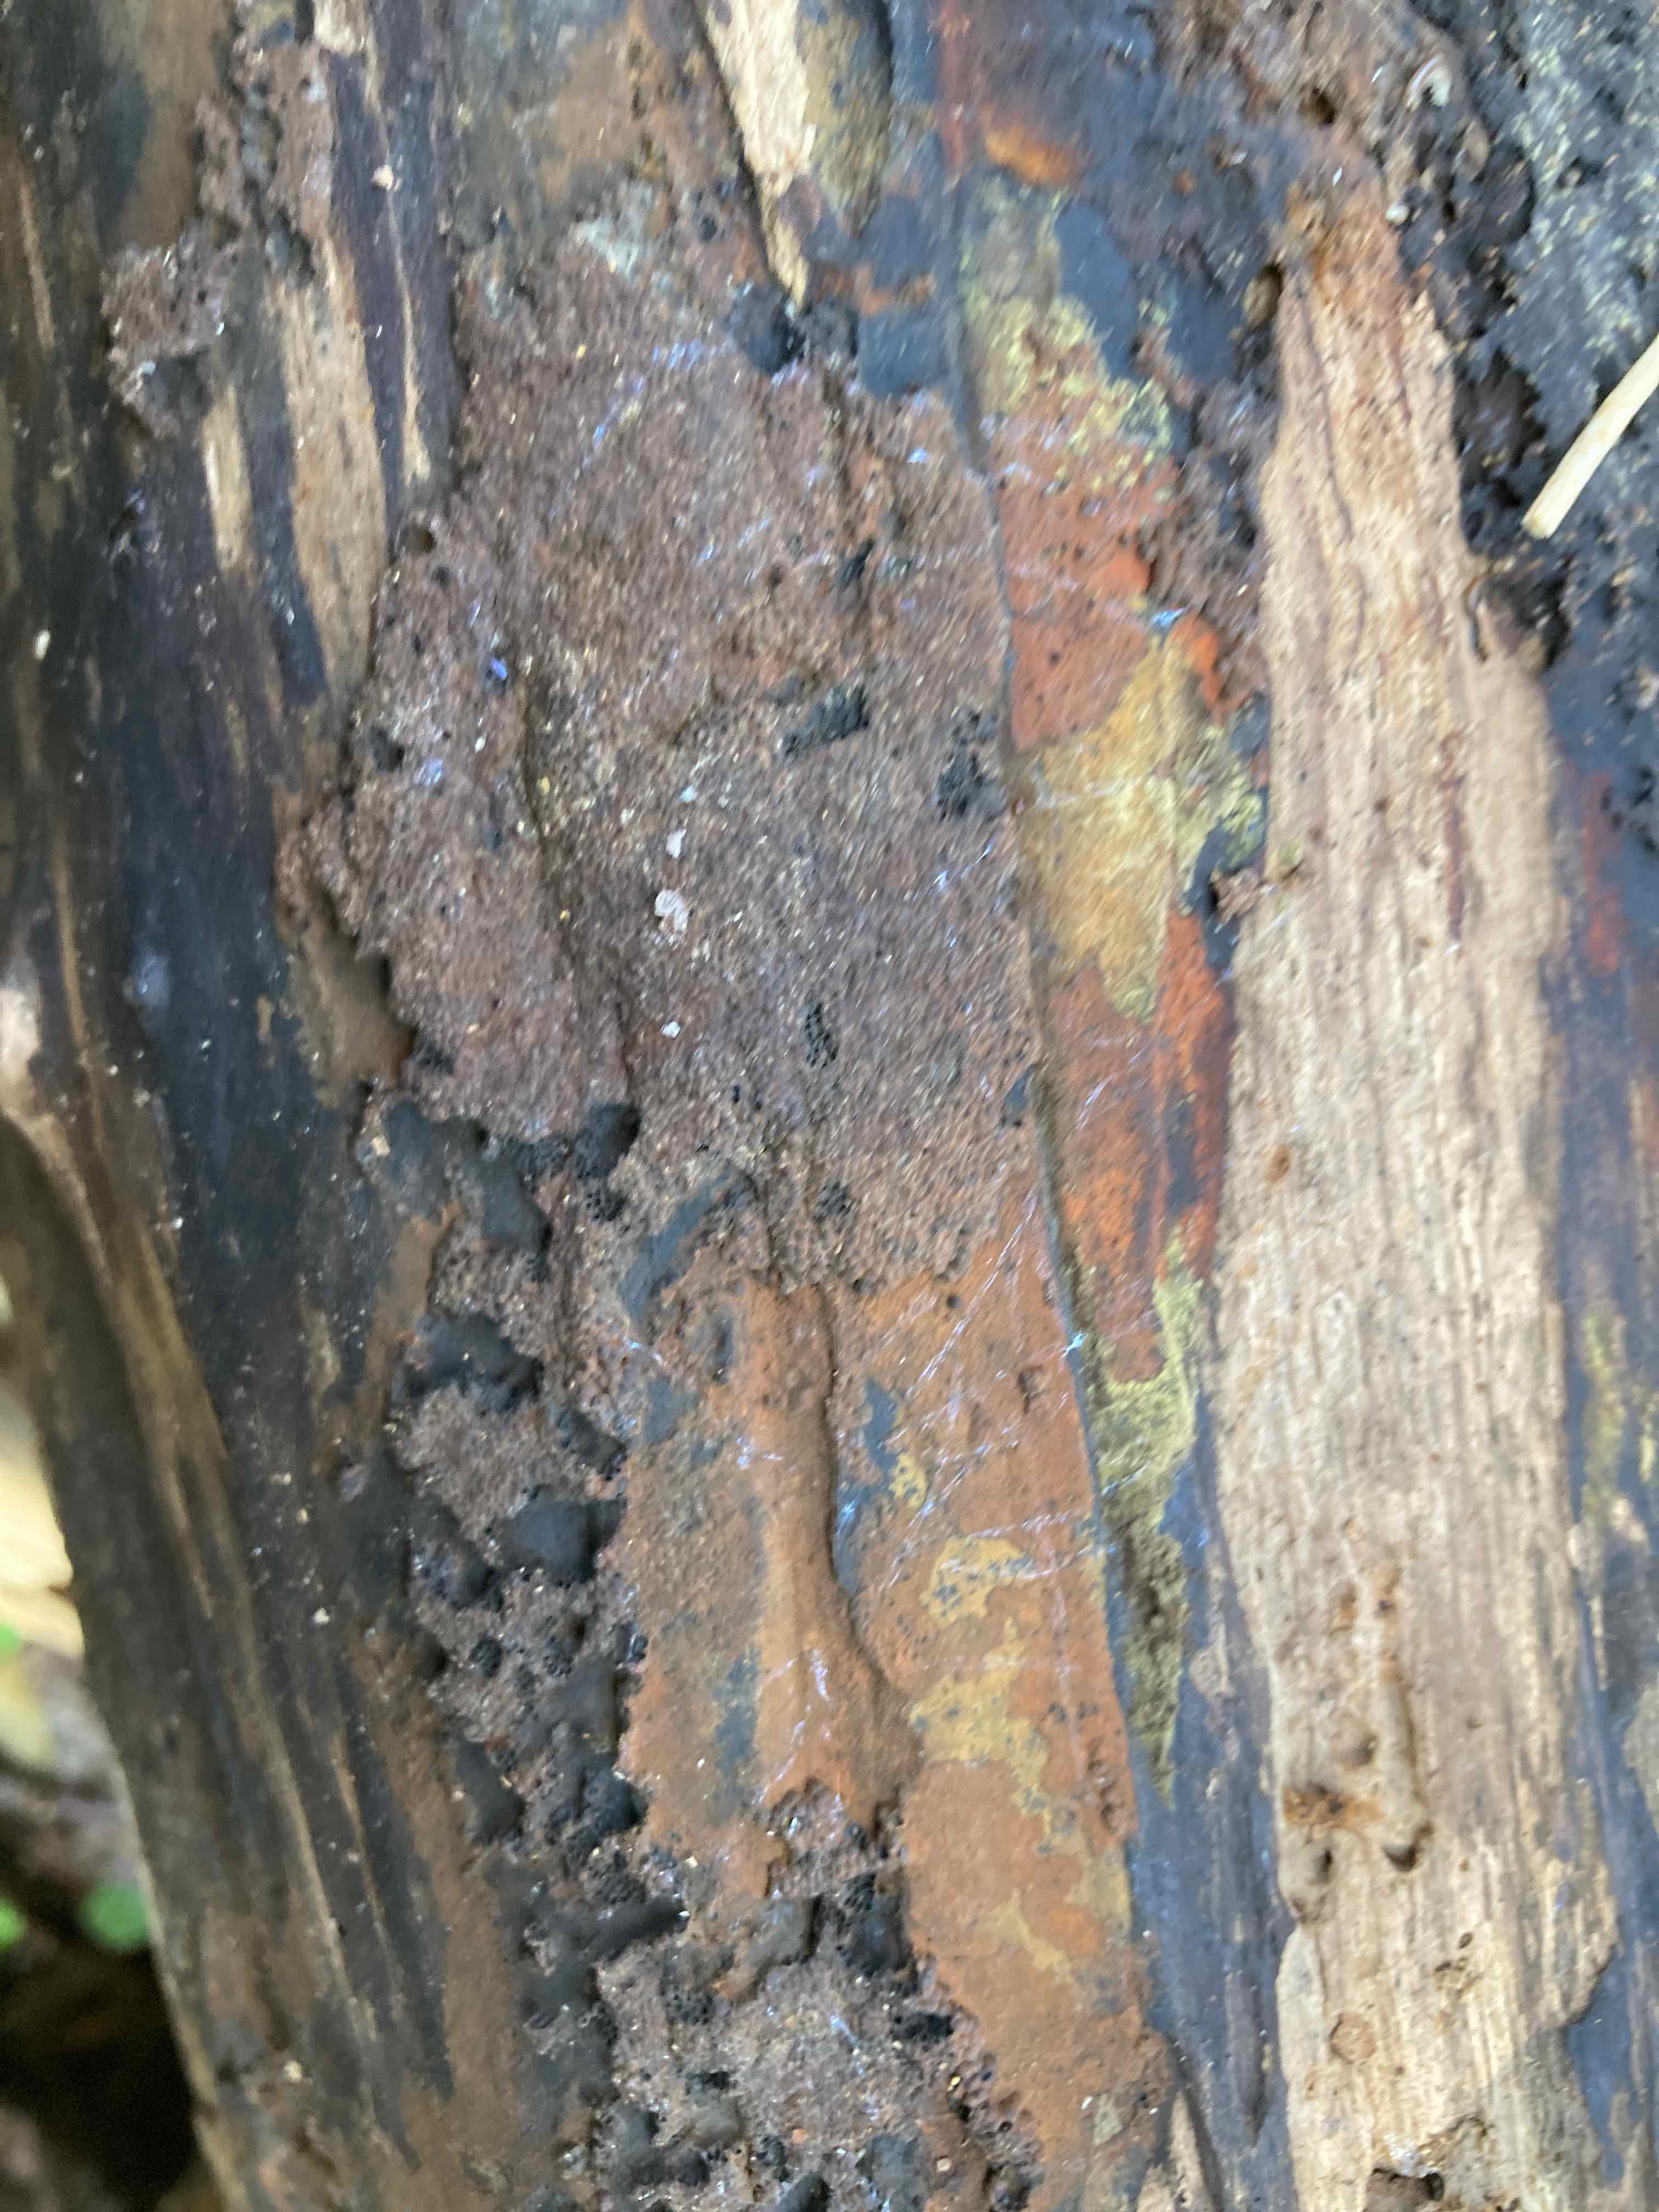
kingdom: Fungi
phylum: Ascomycota
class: Sordariomycetes
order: Xylariales
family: Hypoxylaceae
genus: Hypoxylon
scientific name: Hypoxylon rubiginosum
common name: rustfarvet kulbær
